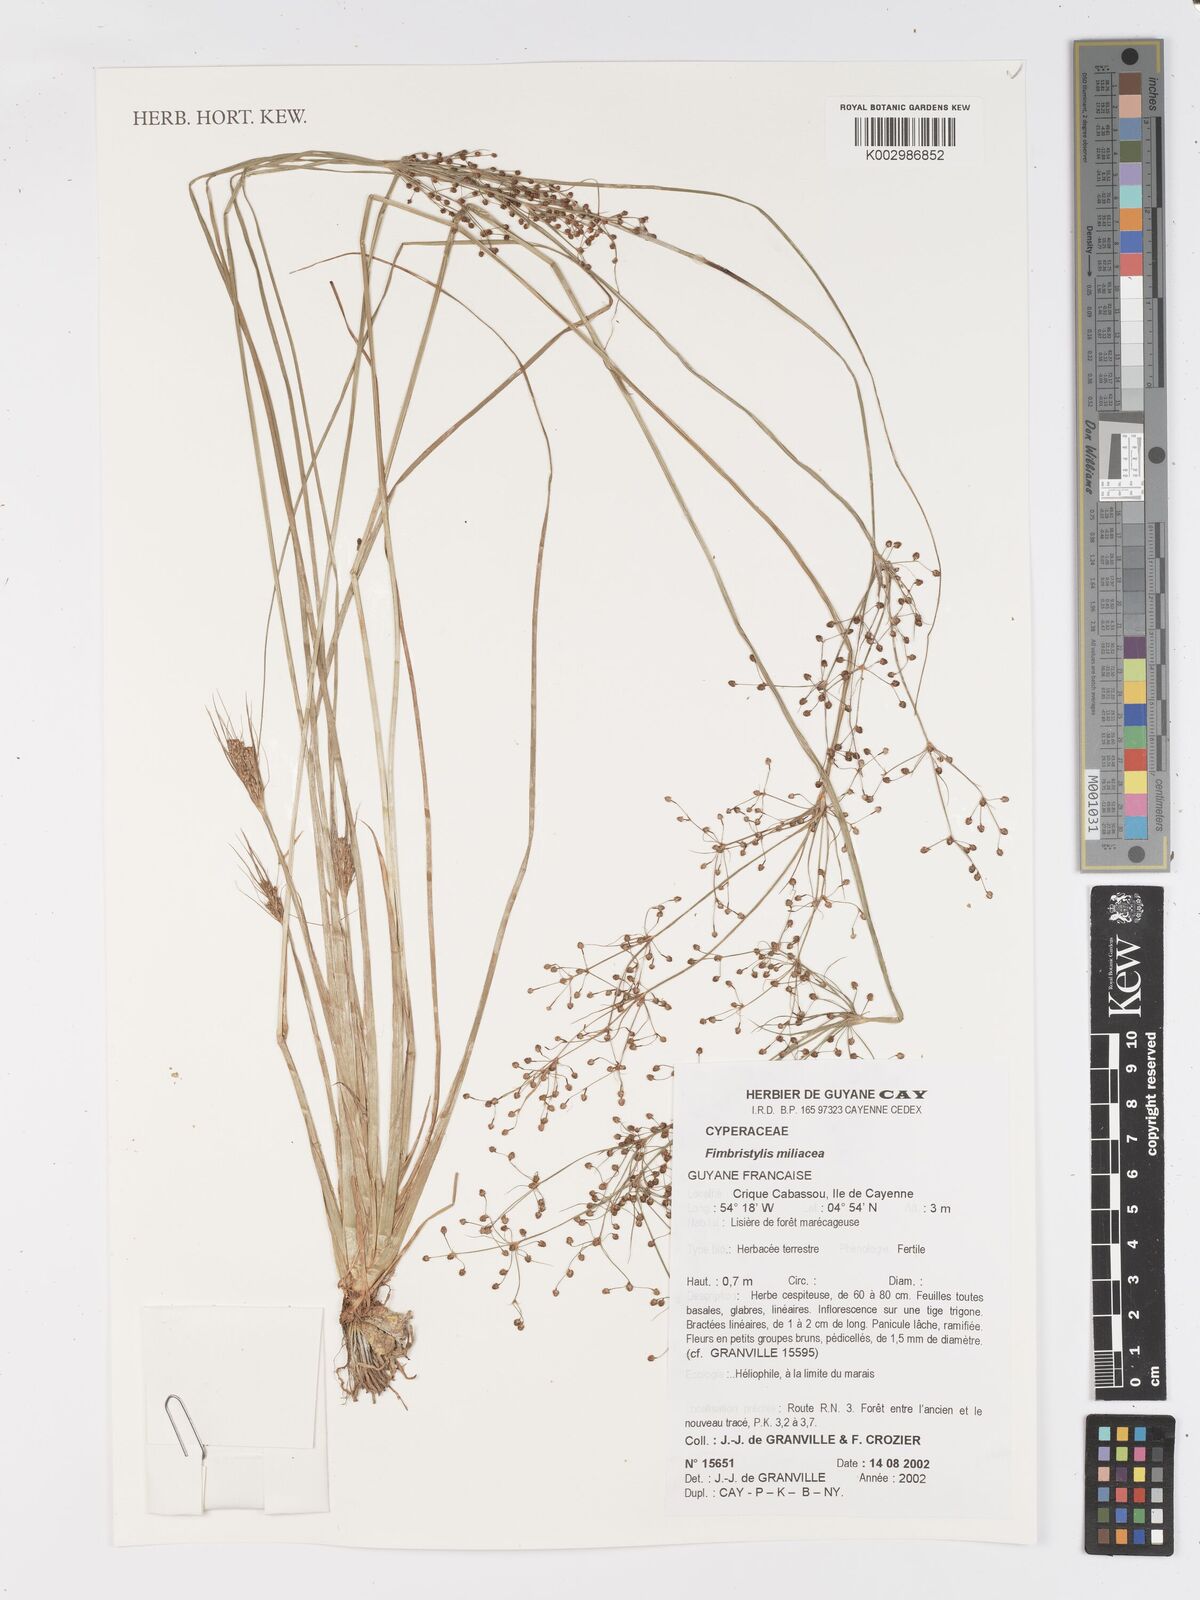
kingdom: Plantae
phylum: Tracheophyta
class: Liliopsida
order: Poales
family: Cyperaceae
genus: Fimbristylis
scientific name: Fimbristylis littoralis
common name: Fimbry
